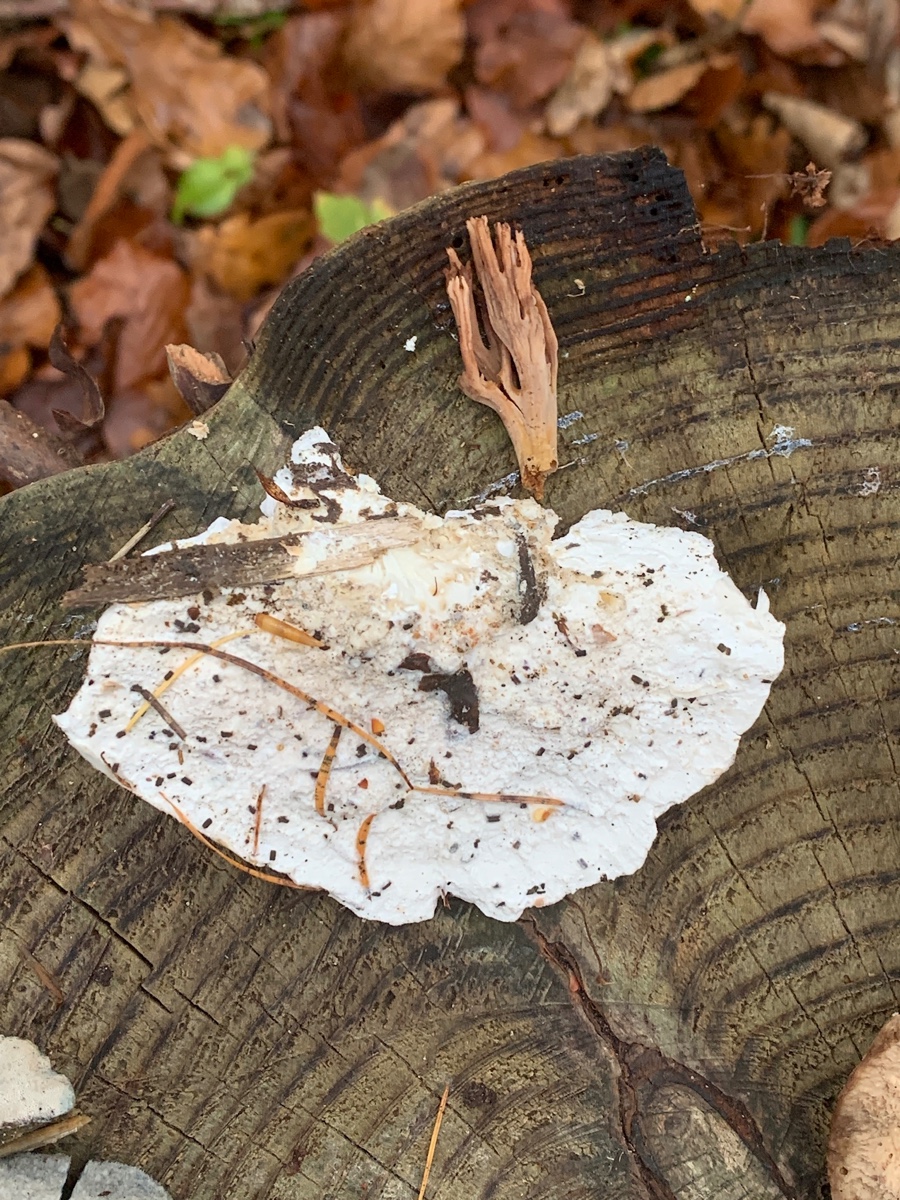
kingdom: Fungi
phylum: Basidiomycota
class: Agaricomycetes
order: Polyporales
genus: Amaropostia
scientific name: Amaropostia stiptica
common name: bitter kødporesvamp
